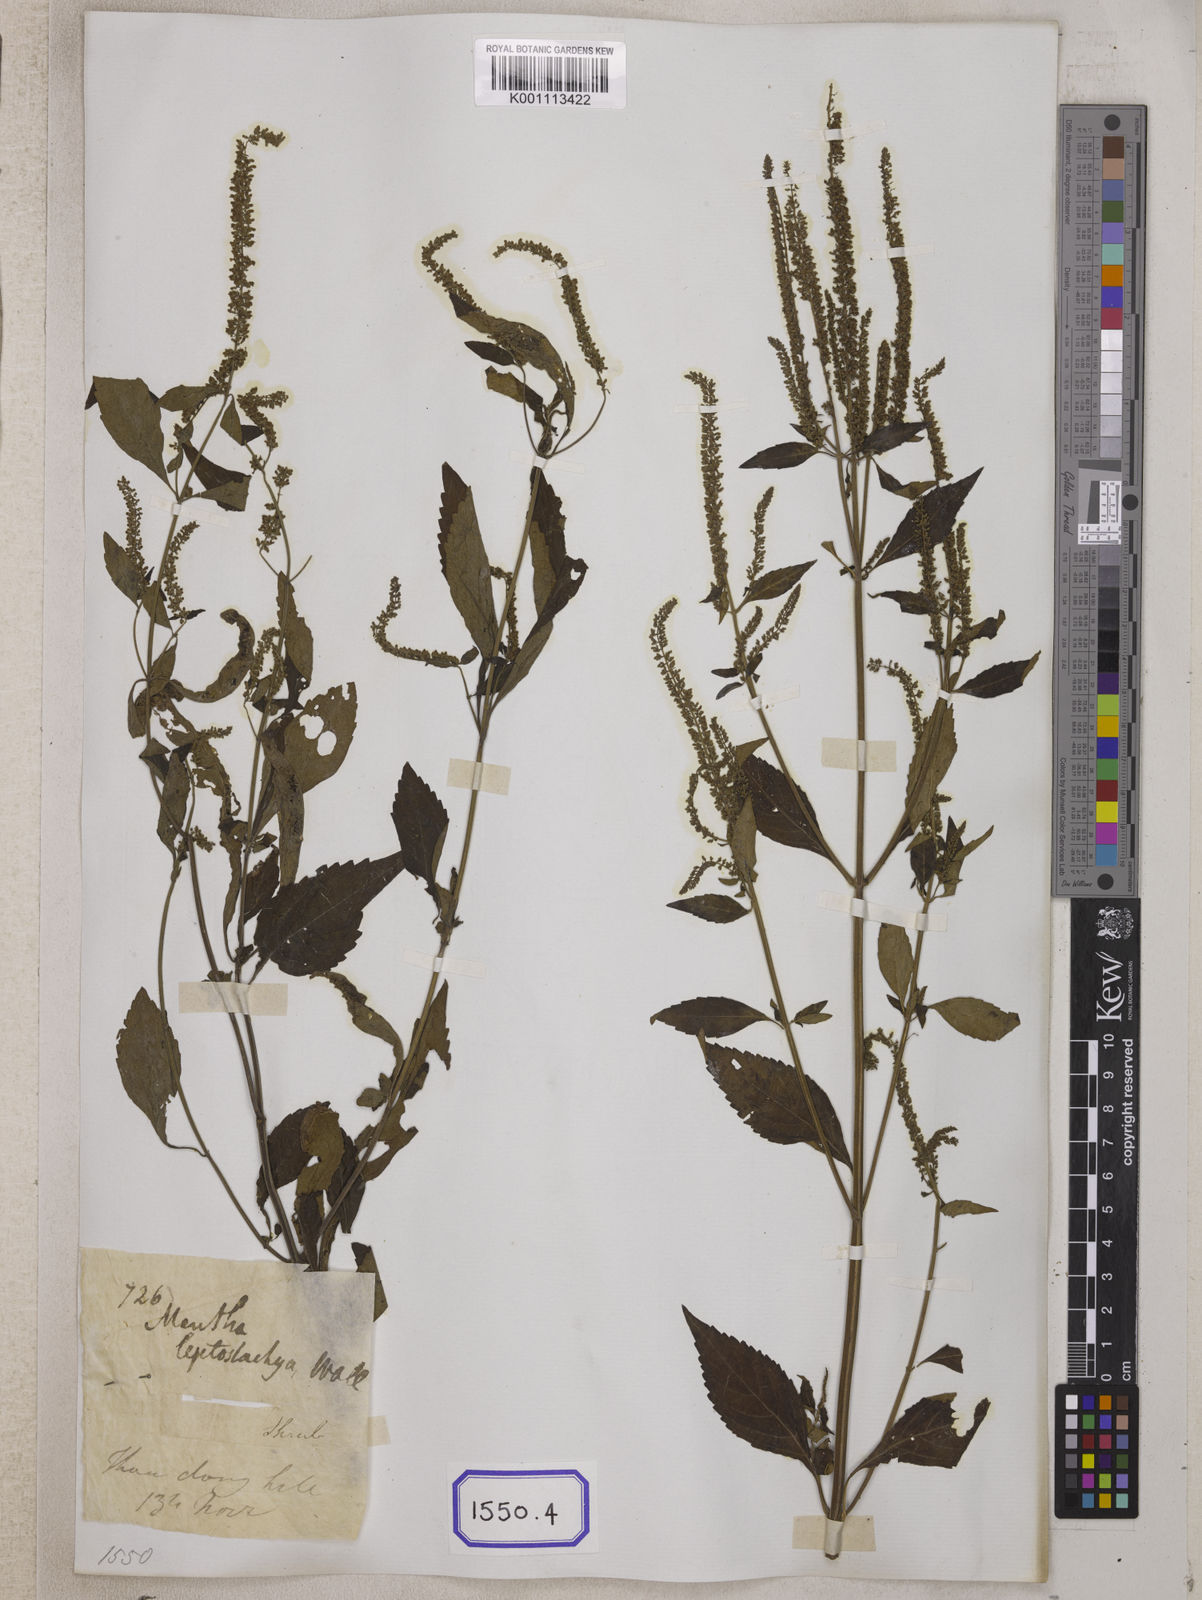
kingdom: Plantae
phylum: Tracheophyta
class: Magnoliopsida
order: Lamiales
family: Lamiaceae
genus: Elsholtzia
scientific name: Elsholtzia blanda
